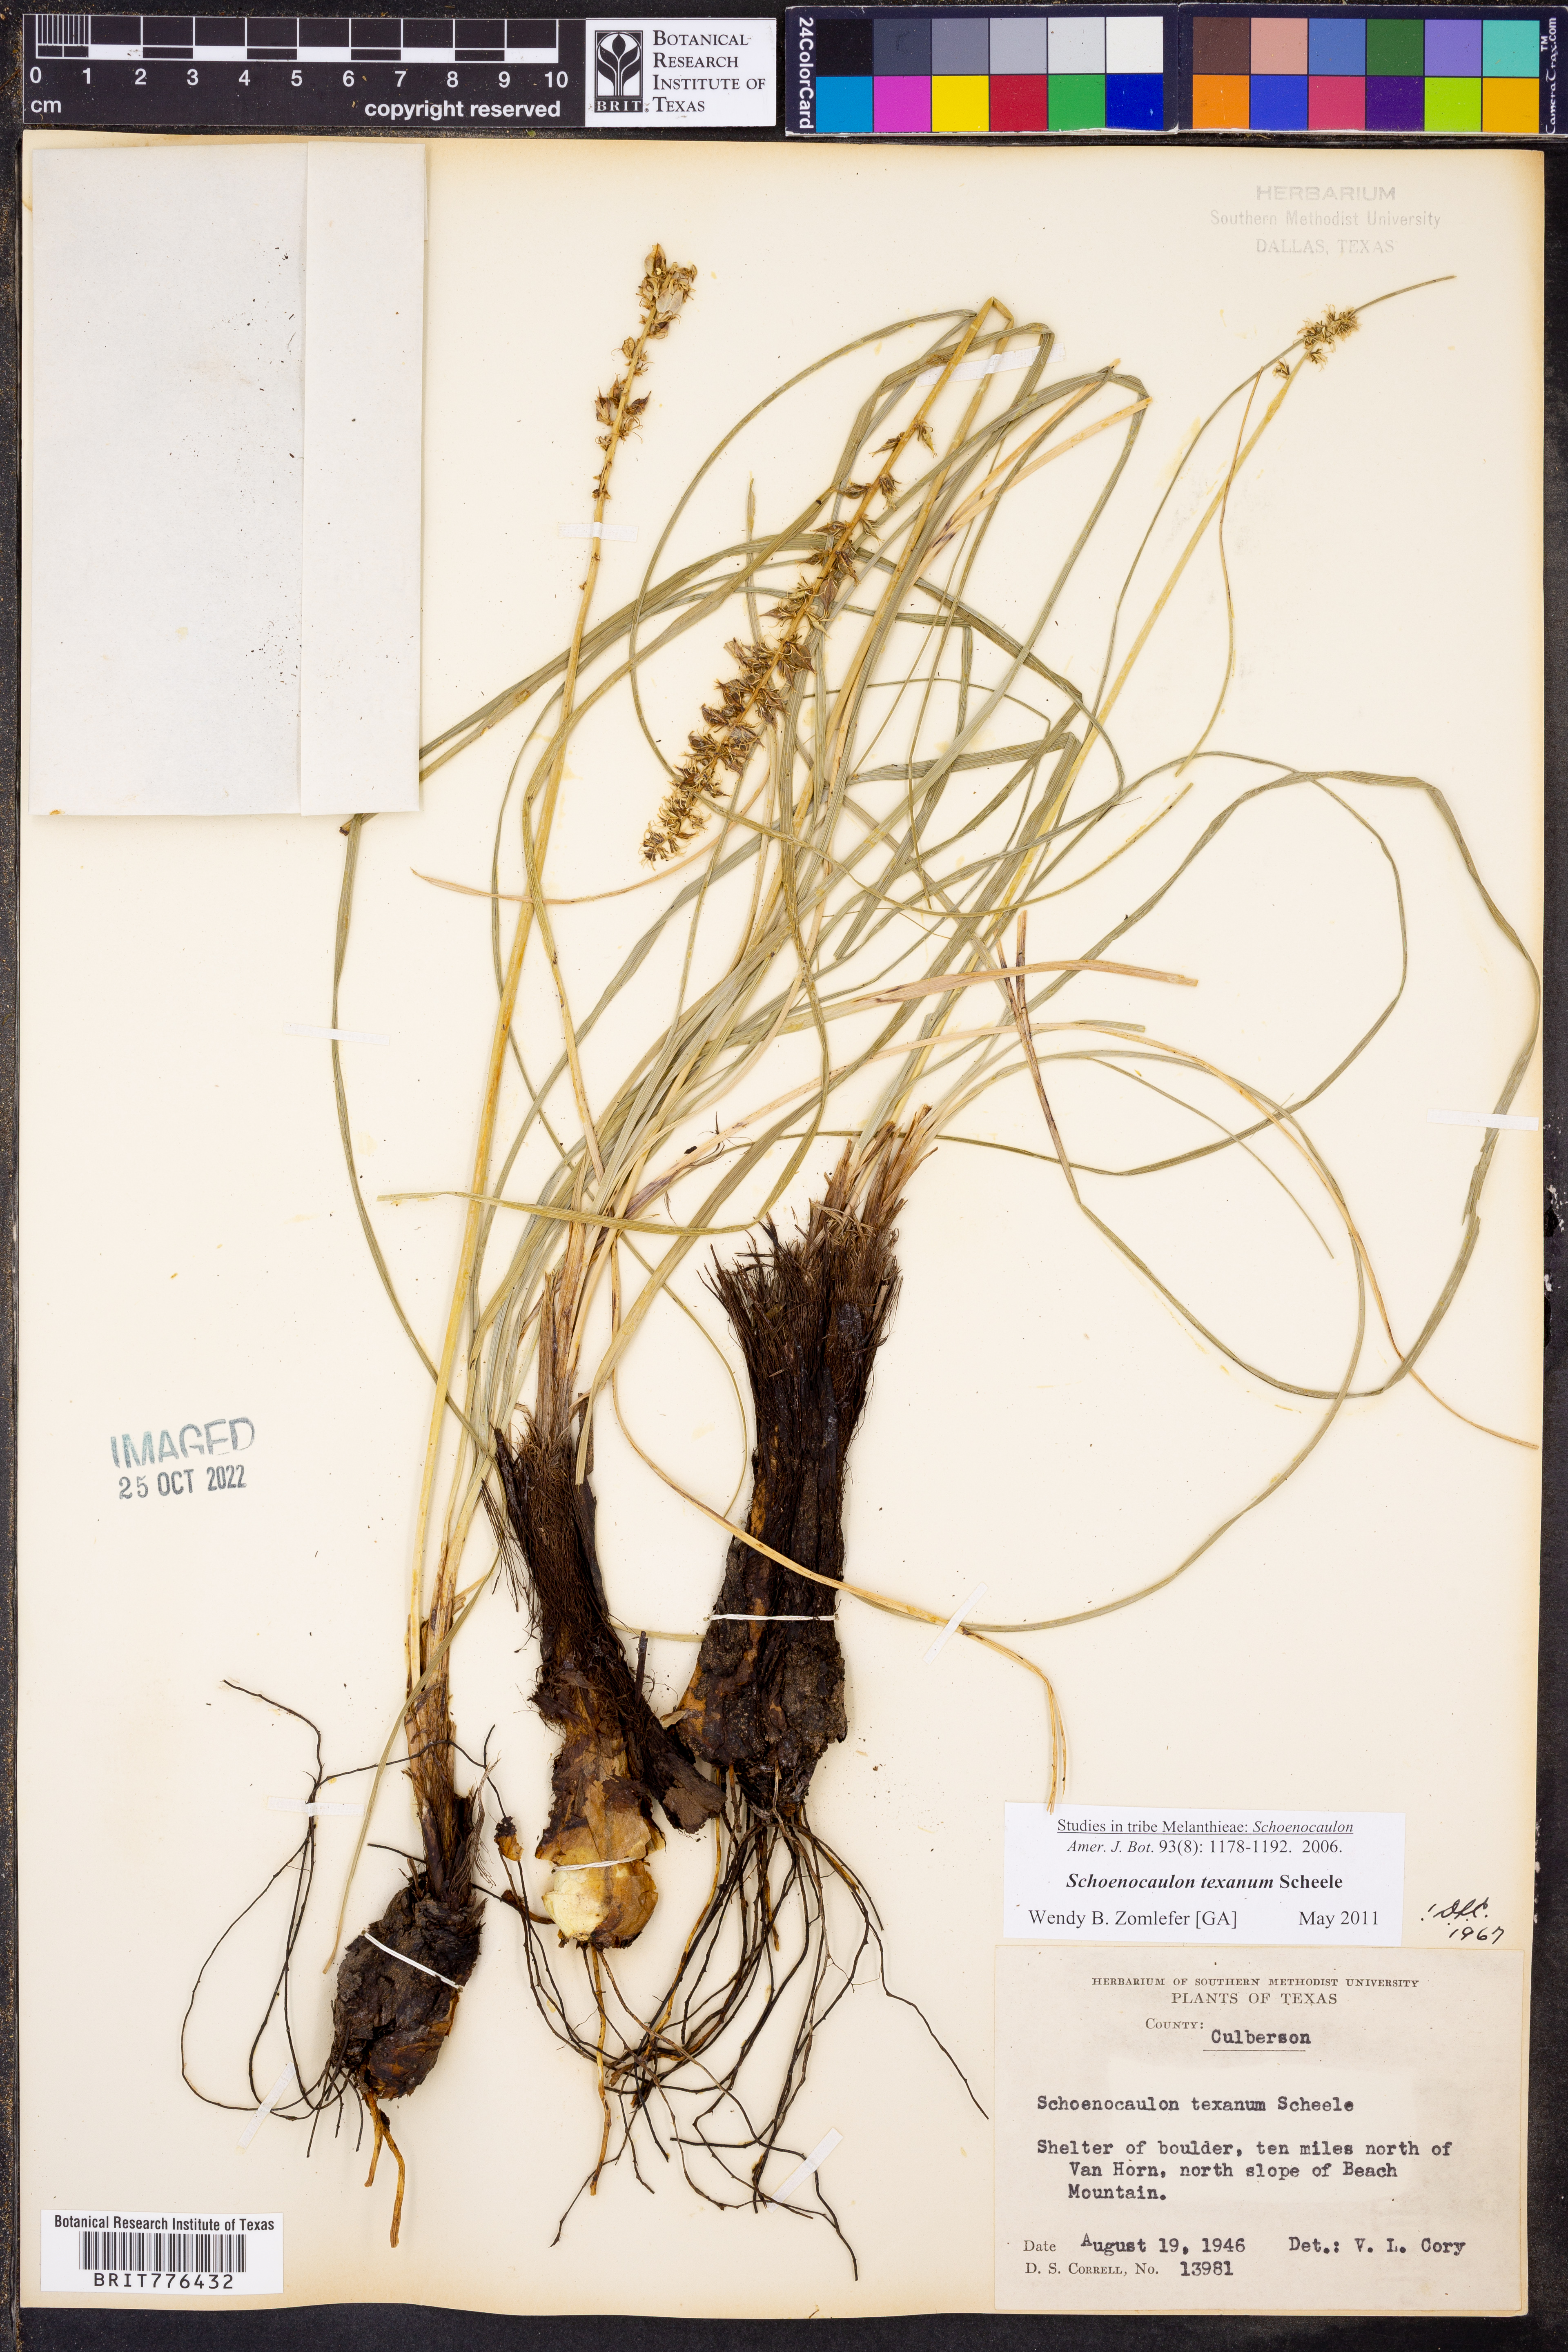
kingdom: Plantae
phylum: Tracheophyta
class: Liliopsida
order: Liliales
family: Melanthiaceae
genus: Schoenocaulon
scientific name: Schoenocaulon texanum
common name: Texas feather-shank
